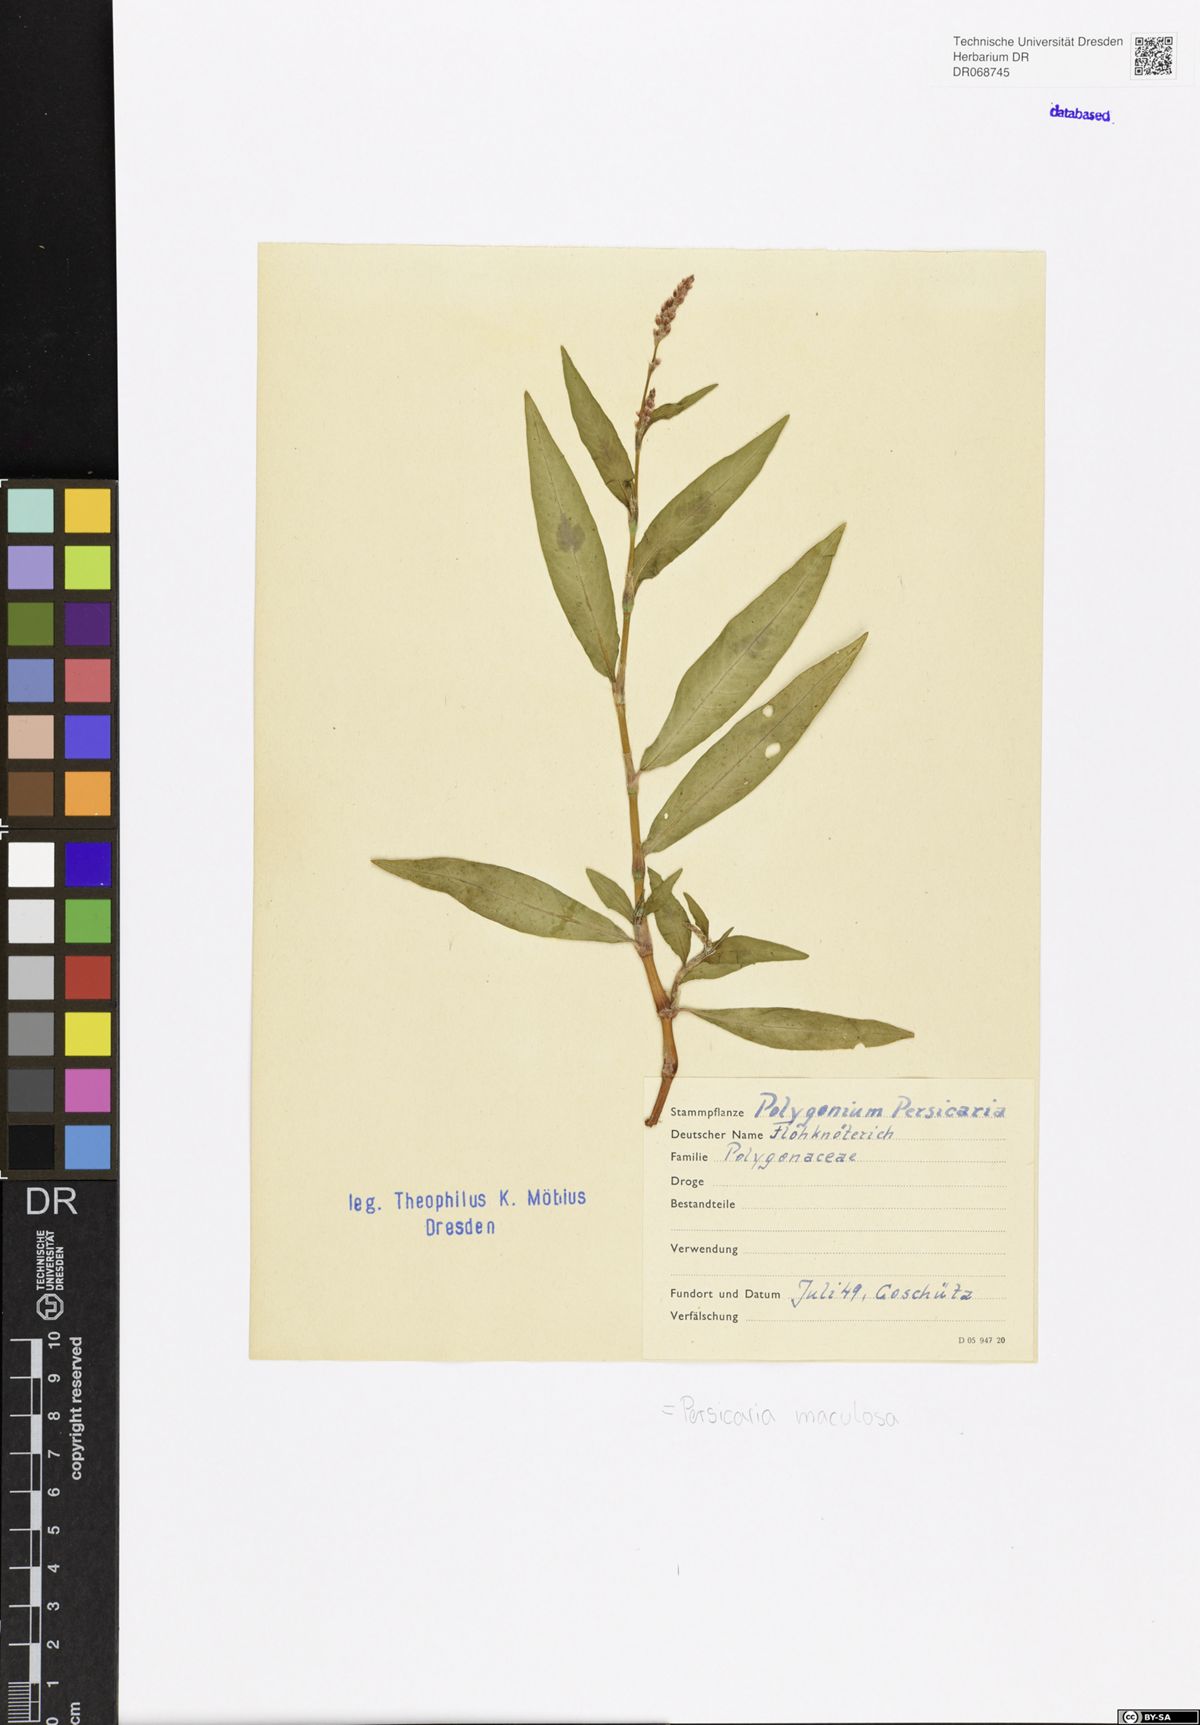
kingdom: Plantae
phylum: Tracheophyta
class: Magnoliopsida
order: Caryophyllales
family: Polygonaceae
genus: Persicaria
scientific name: Persicaria maculosa
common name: Redshank
